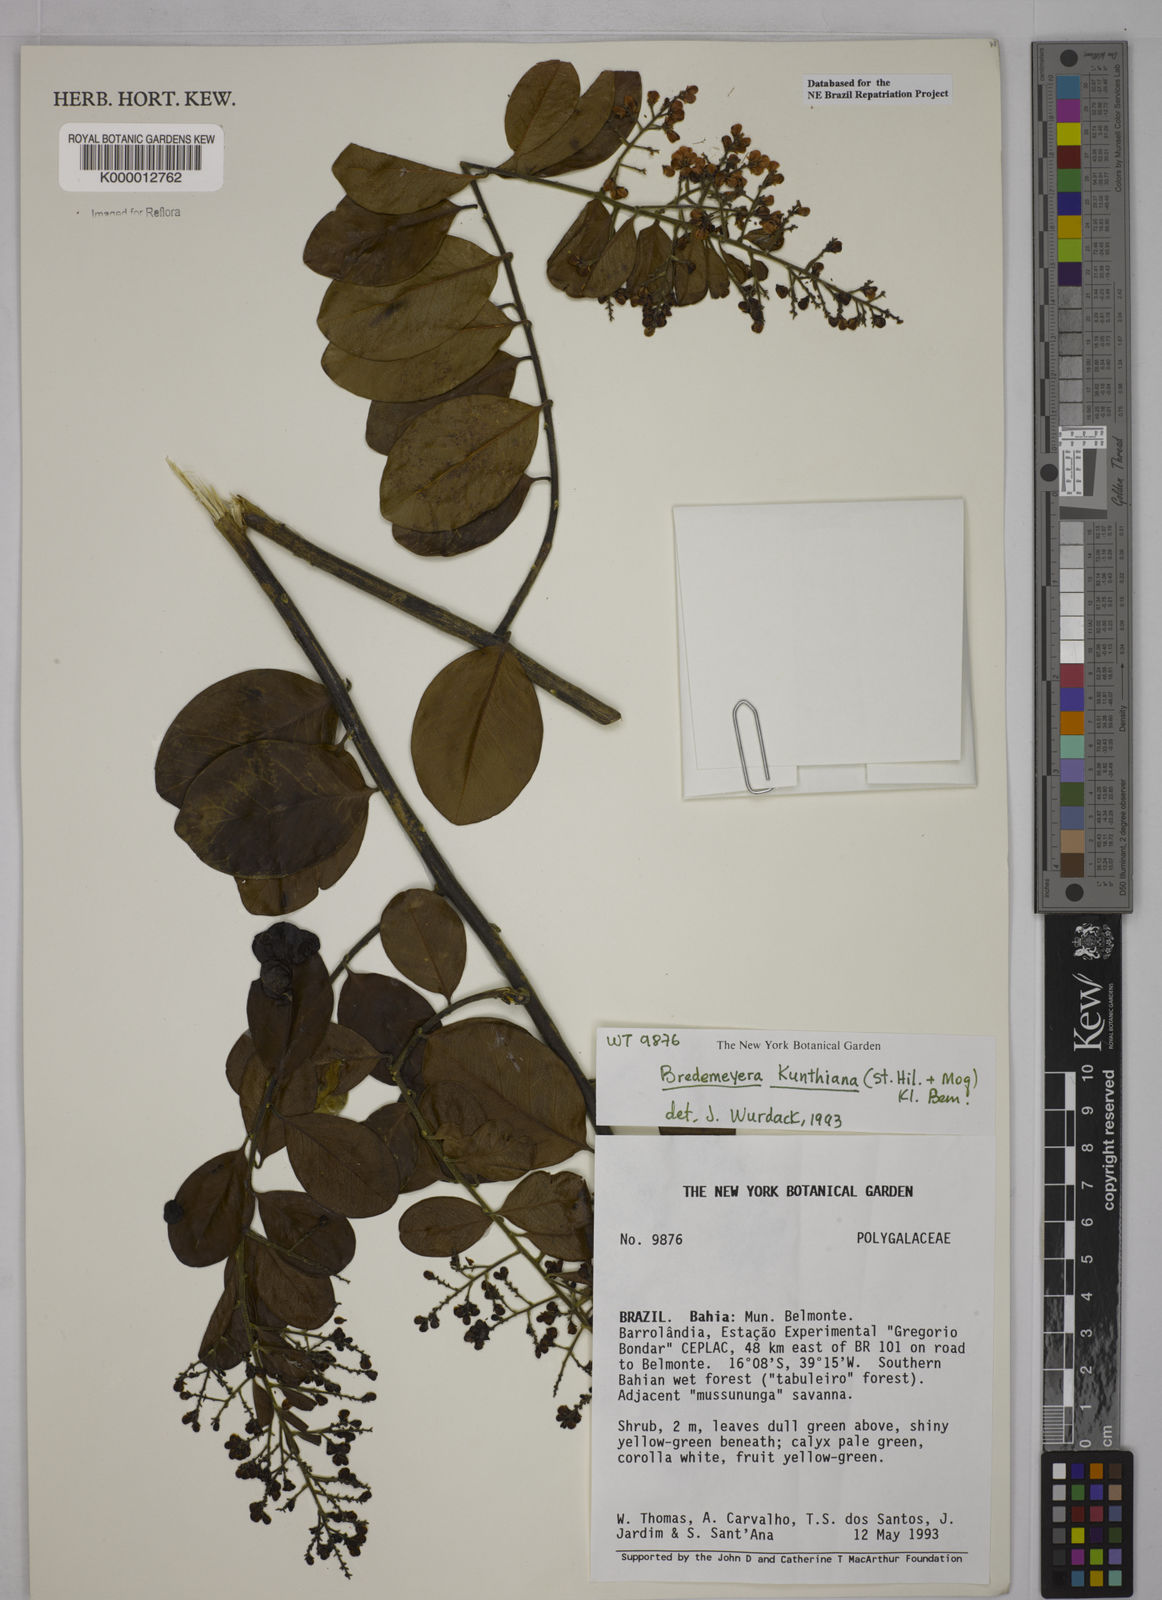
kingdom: Plantae
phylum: Tracheophyta
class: Magnoliopsida
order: Fabales
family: Polygalaceae
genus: Bredemeyera
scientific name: Bredemeyera hebeclada
